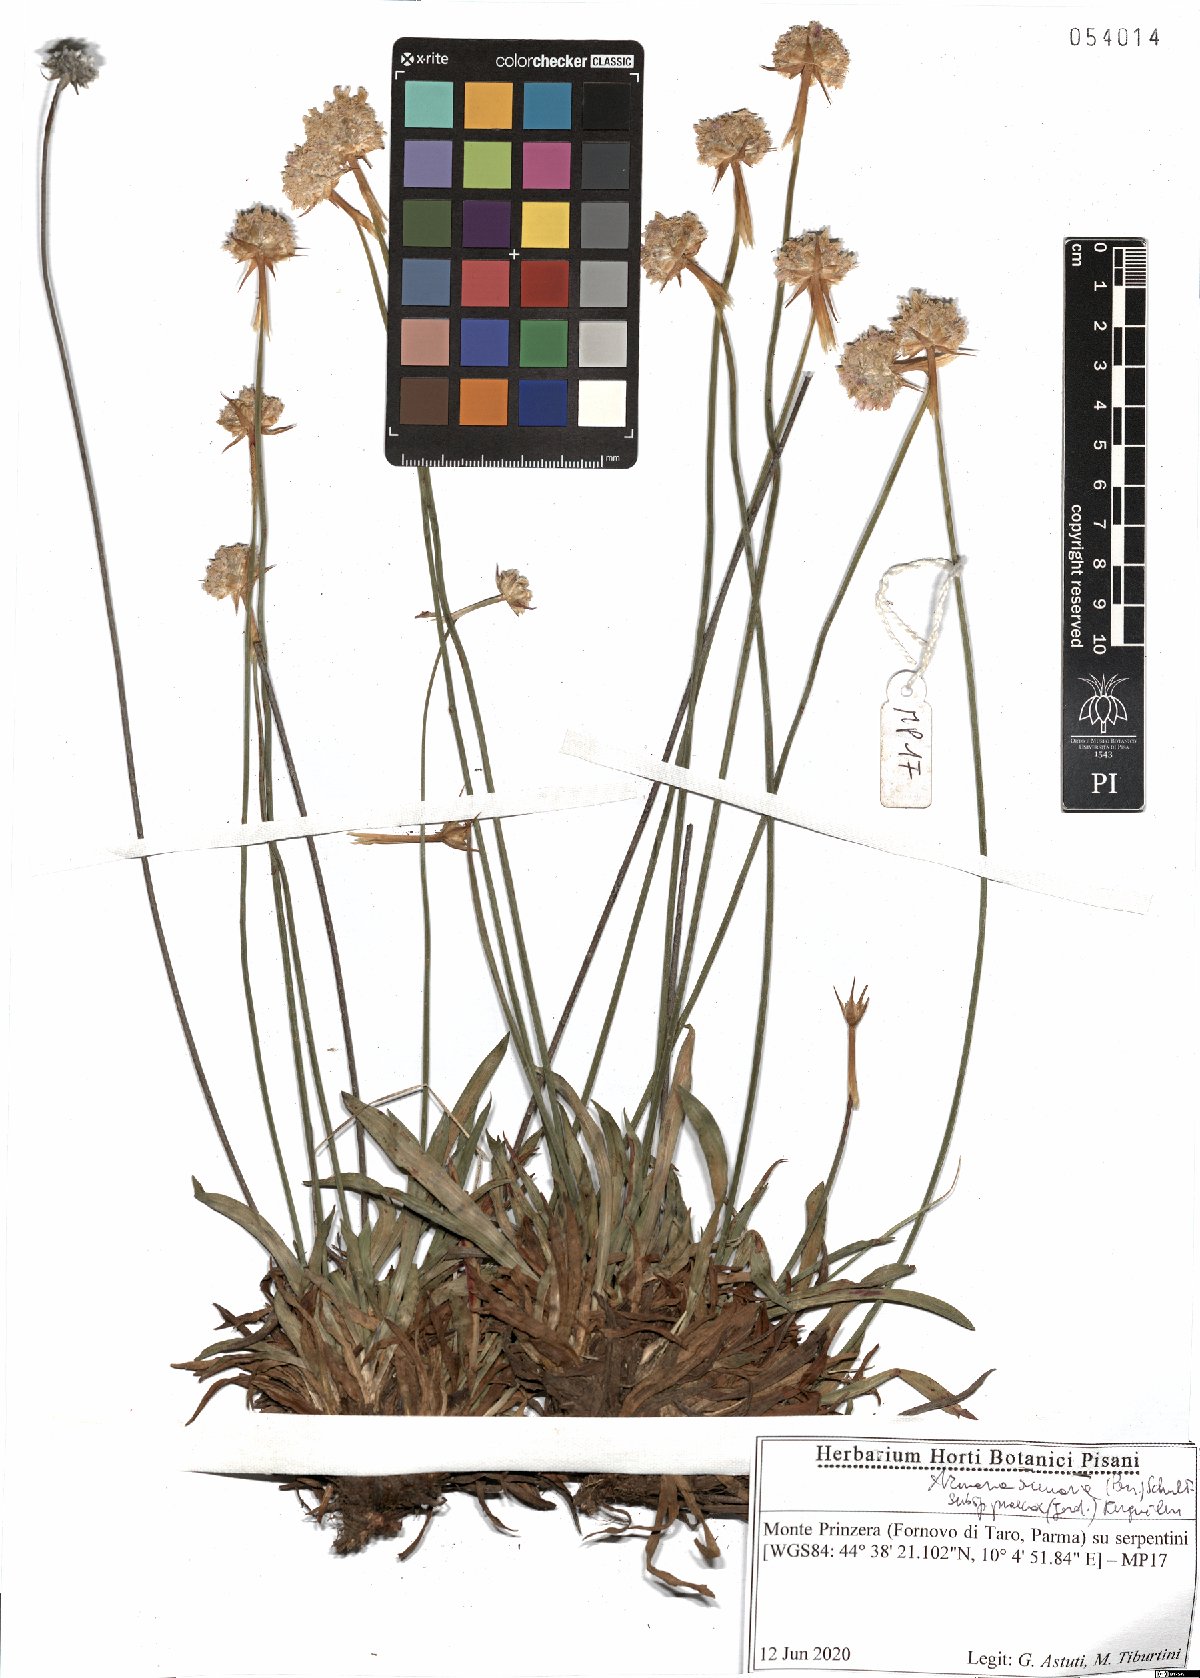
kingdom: Plantae
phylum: Tracheophyta
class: Magnoliopsida
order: Caryophyllales
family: Plumbaginaceae
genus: Armeria
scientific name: Armeria arenaria
